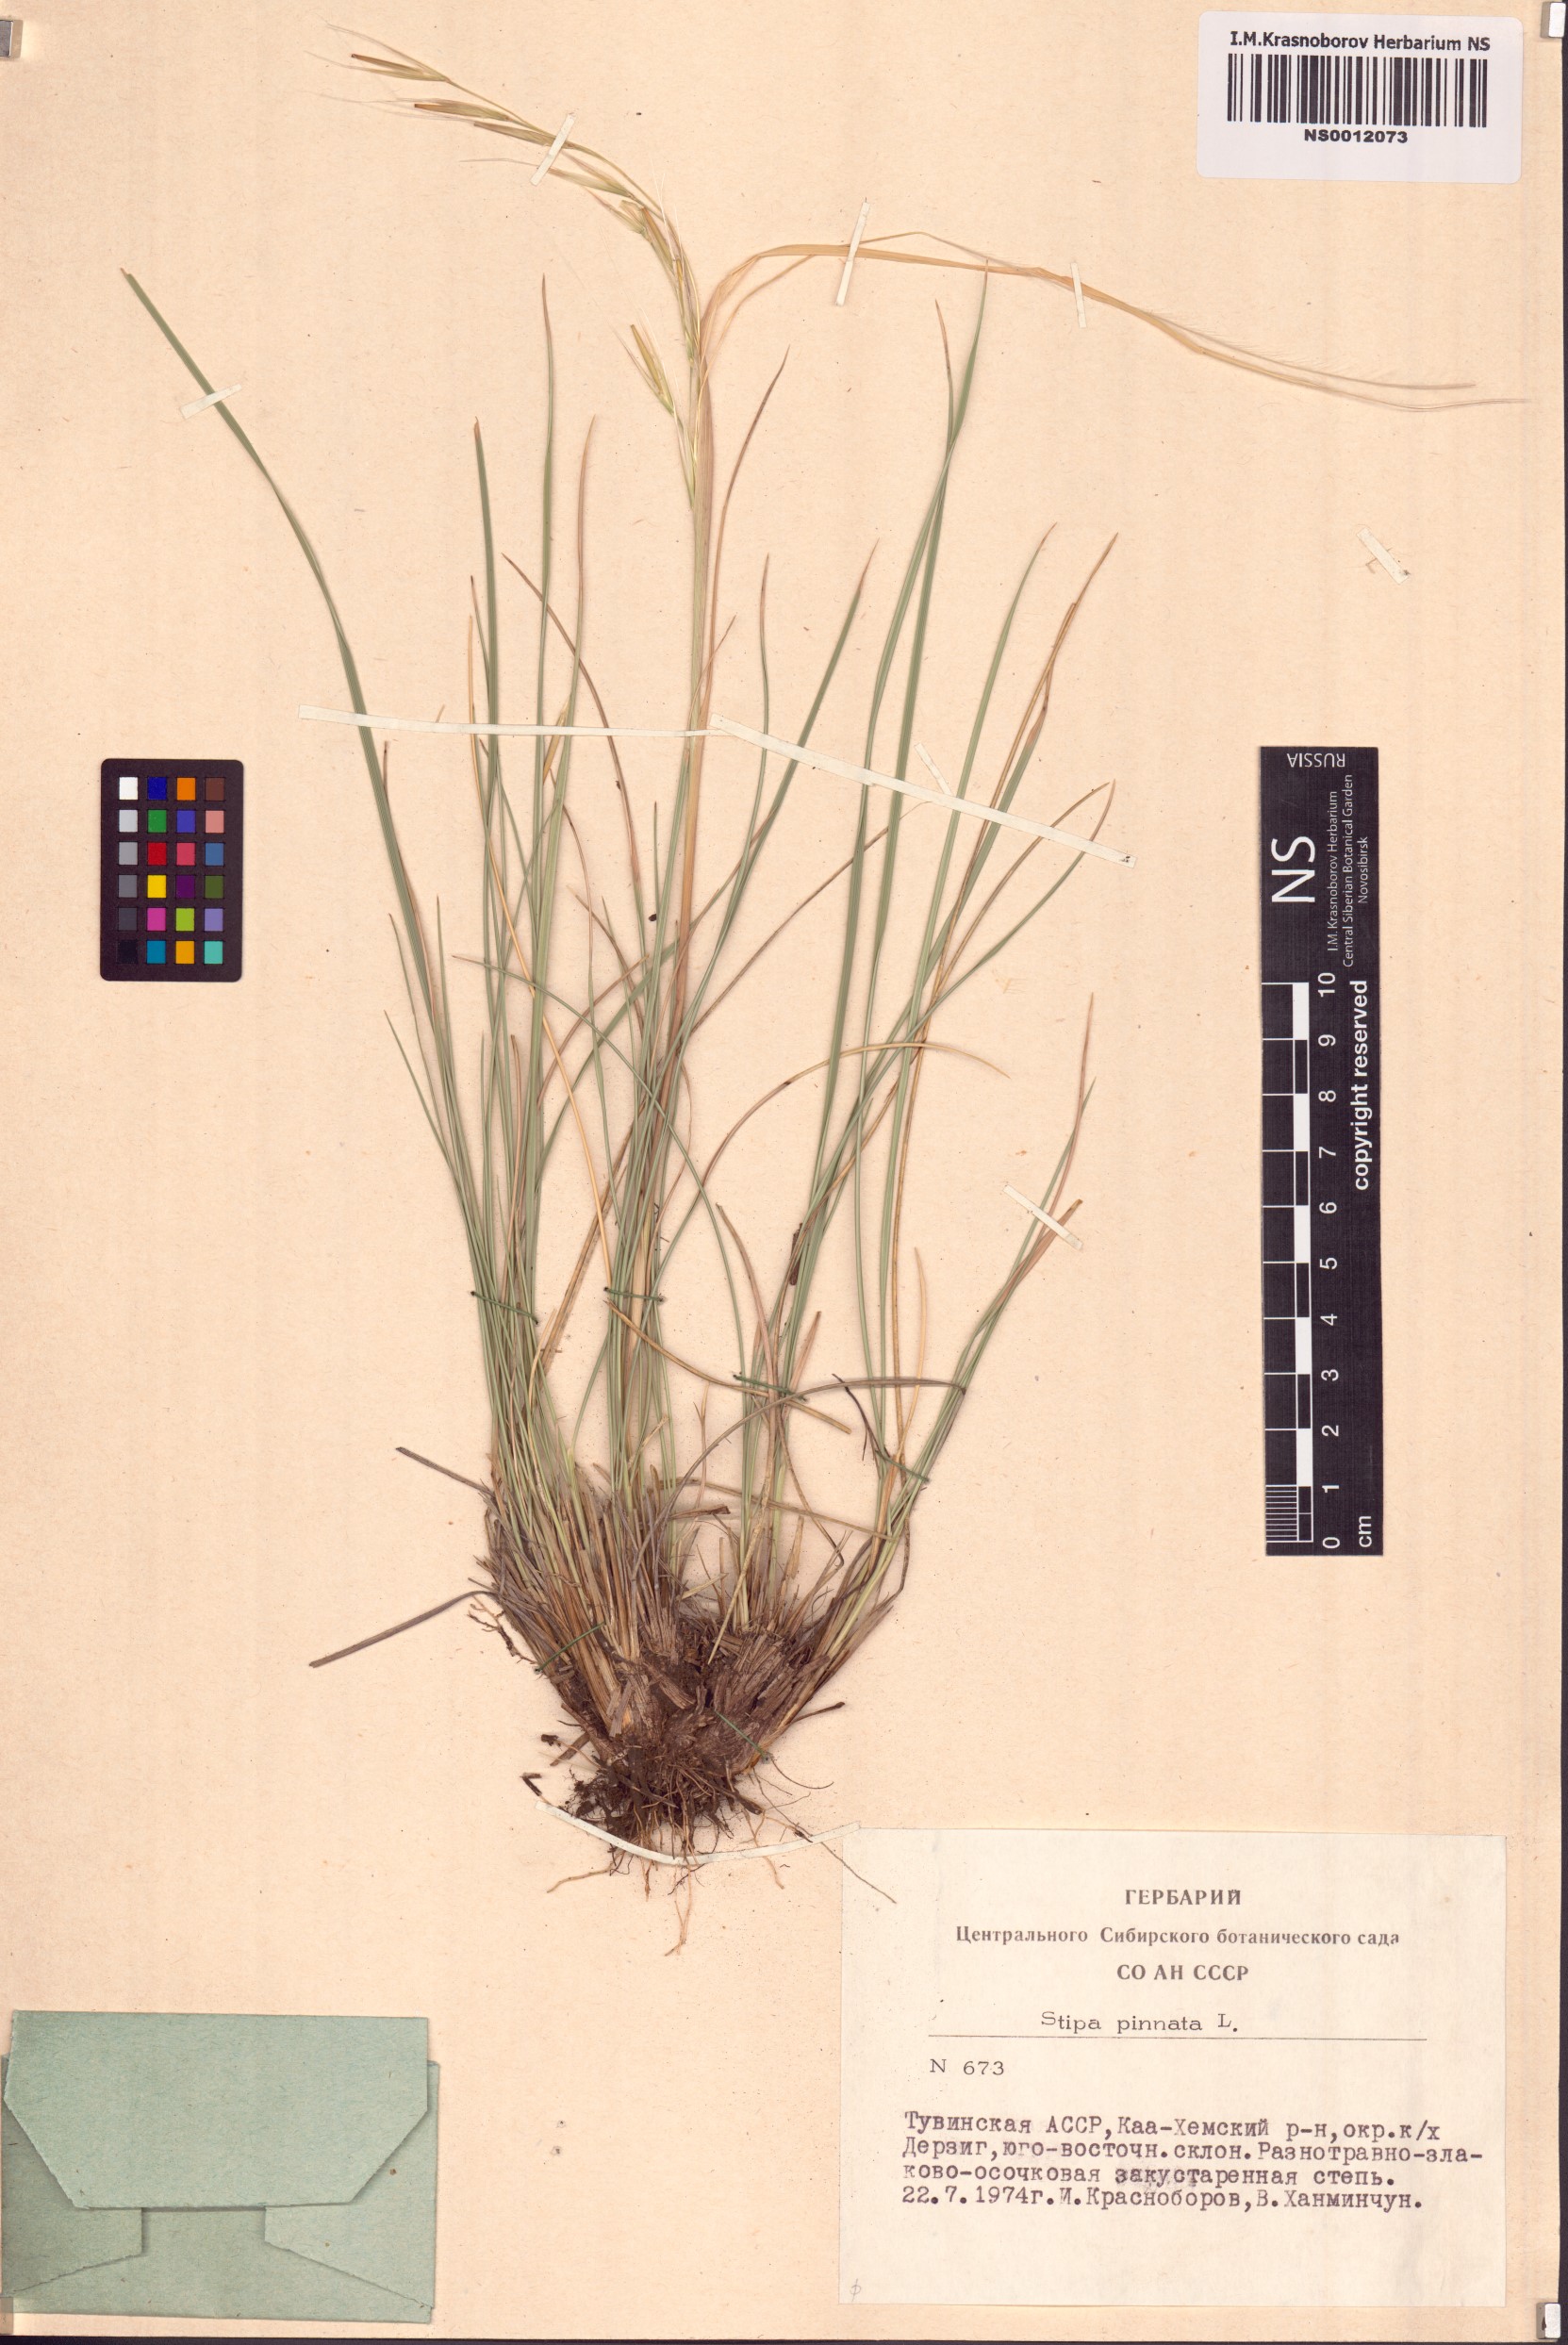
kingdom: Plantae
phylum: Tracheophyta
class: Liliopsida
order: Poales
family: Poaceae
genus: Stipa
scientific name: Stipa pennata
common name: European feather grass
